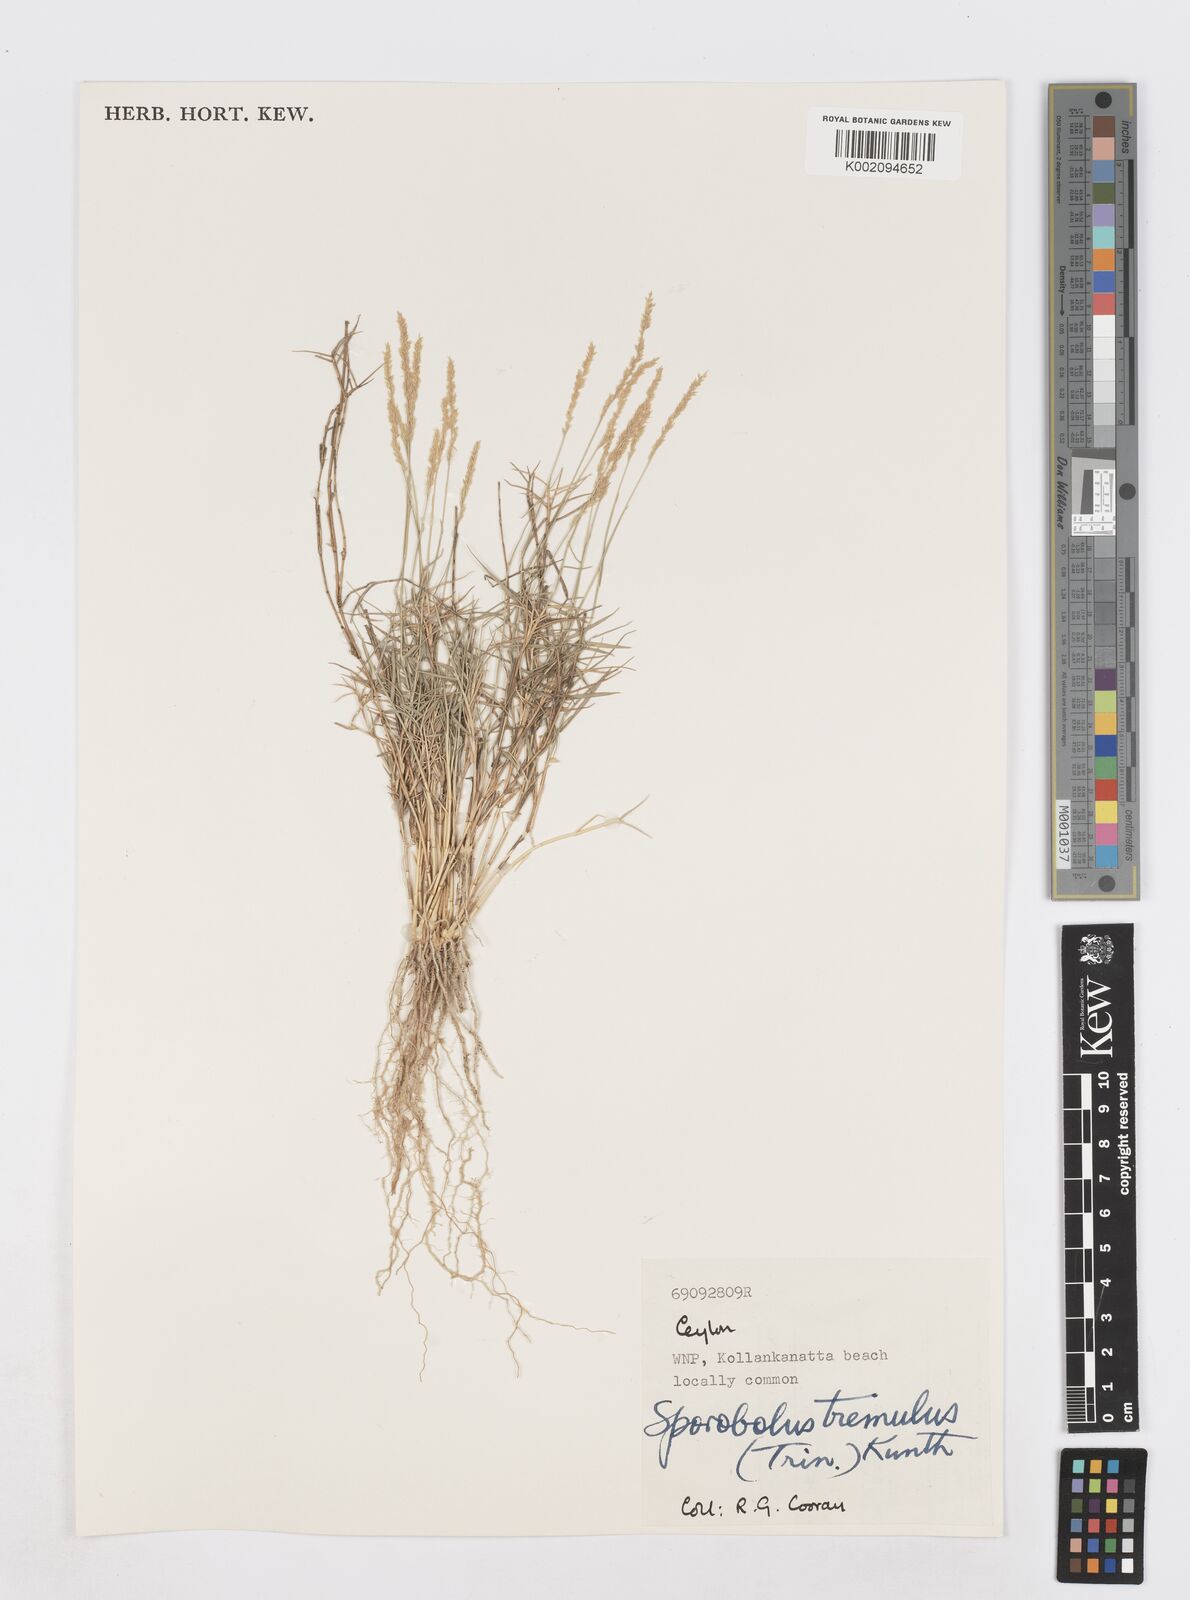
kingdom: Plantae
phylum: Tracheophyta
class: Liliopsida
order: Poales
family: Poaceae
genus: Sporobolus
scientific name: Sporobolus virginicus
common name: Beach dropseed
